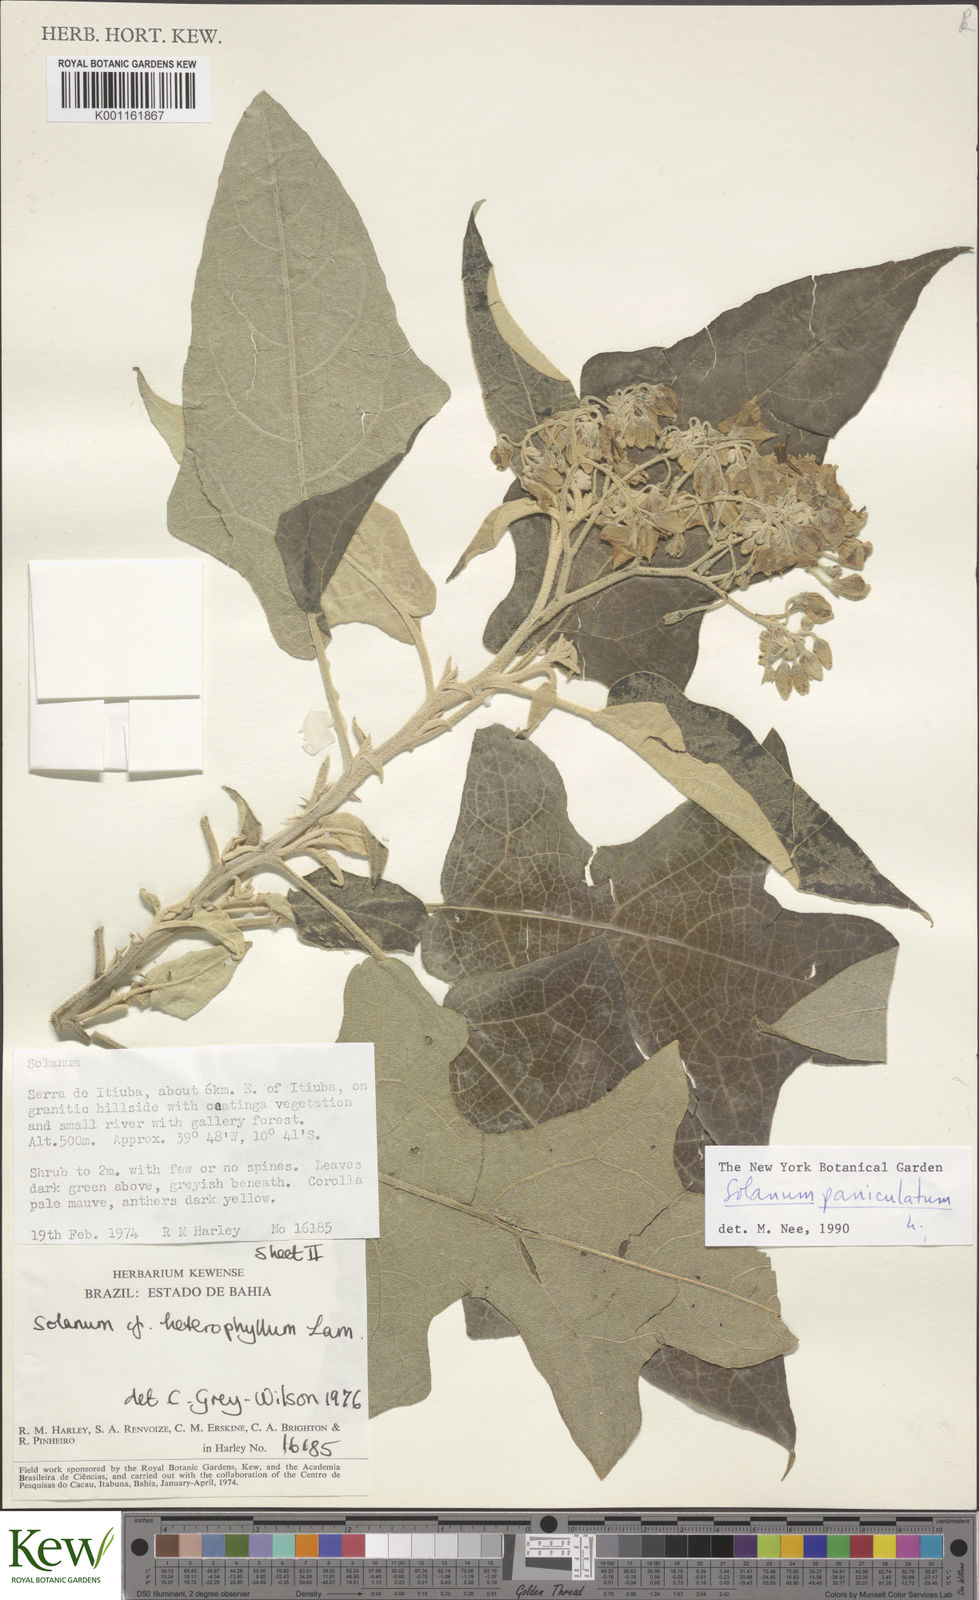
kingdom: Plantae
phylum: Tracheophyta
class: Magnoliopsida
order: Solanales
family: Solanaceae
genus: Solanum
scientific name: Solanum paniculatum
